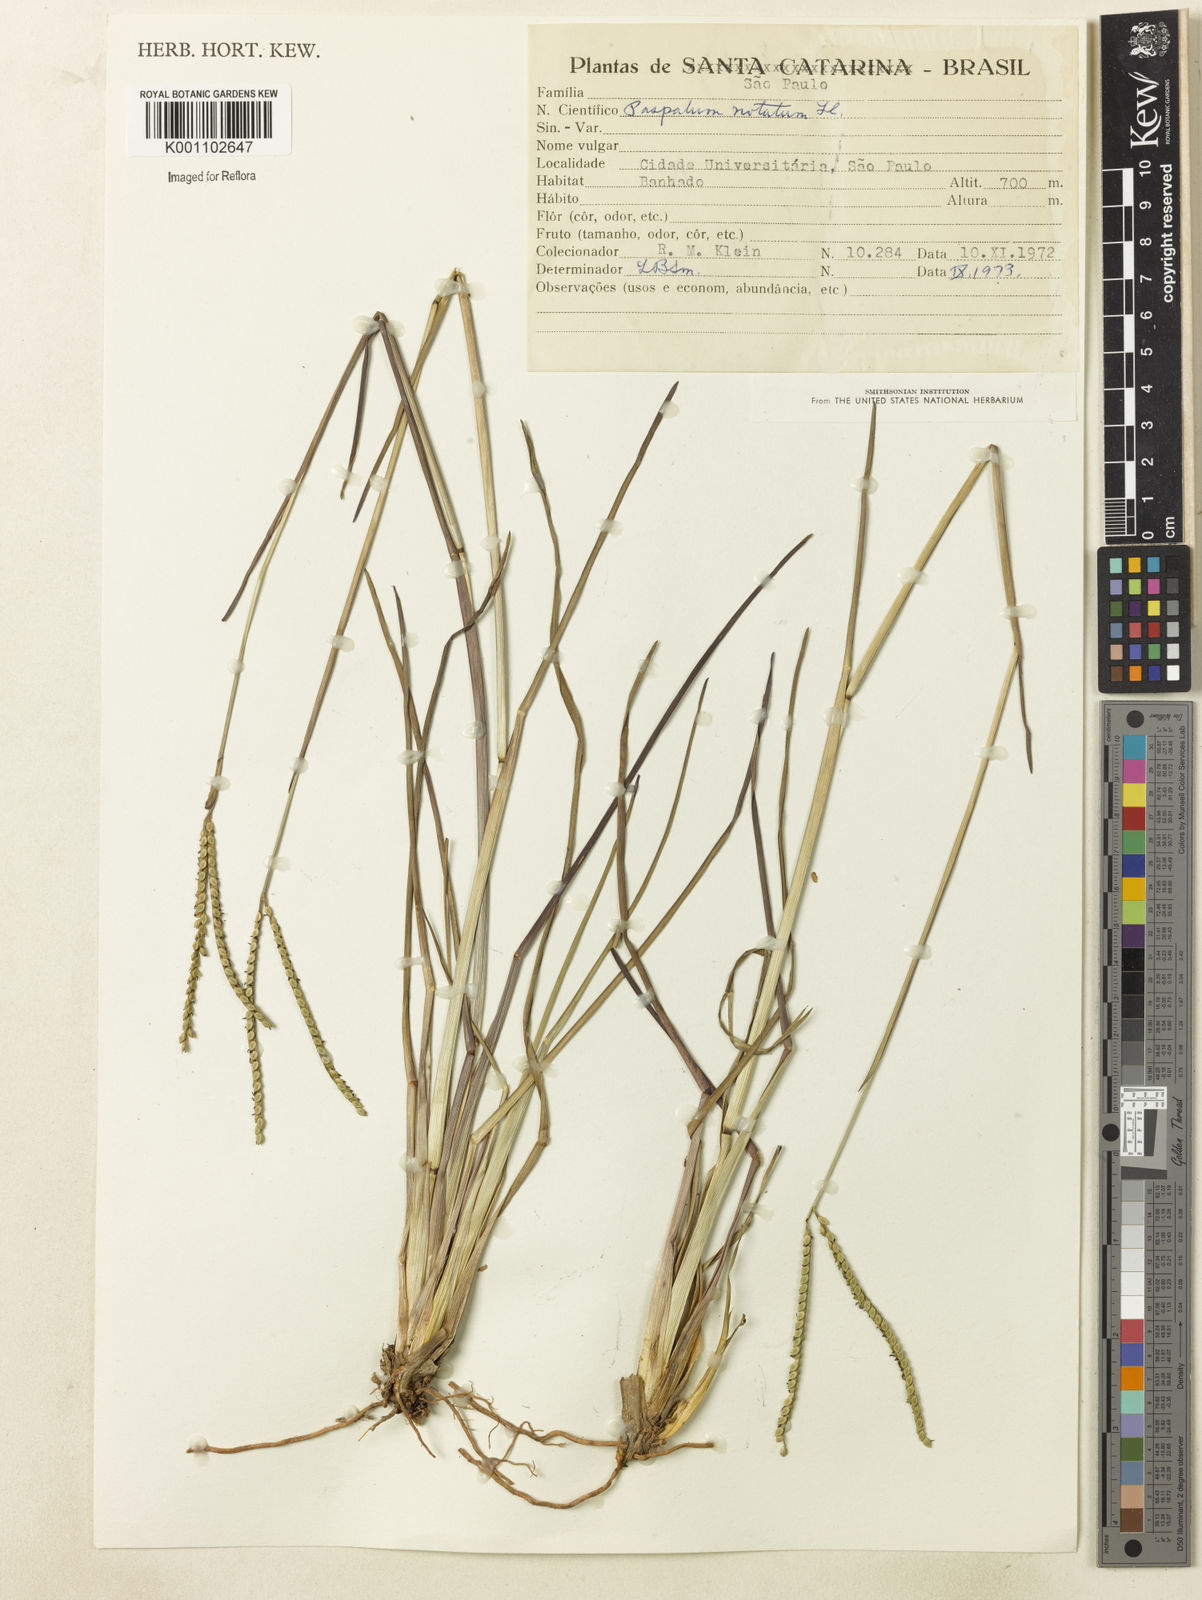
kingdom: Plantae
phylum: Tracheophyta
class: Liliopsida
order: Poales
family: Poaceae
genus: Paspalum
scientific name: Paspalum ramboi
